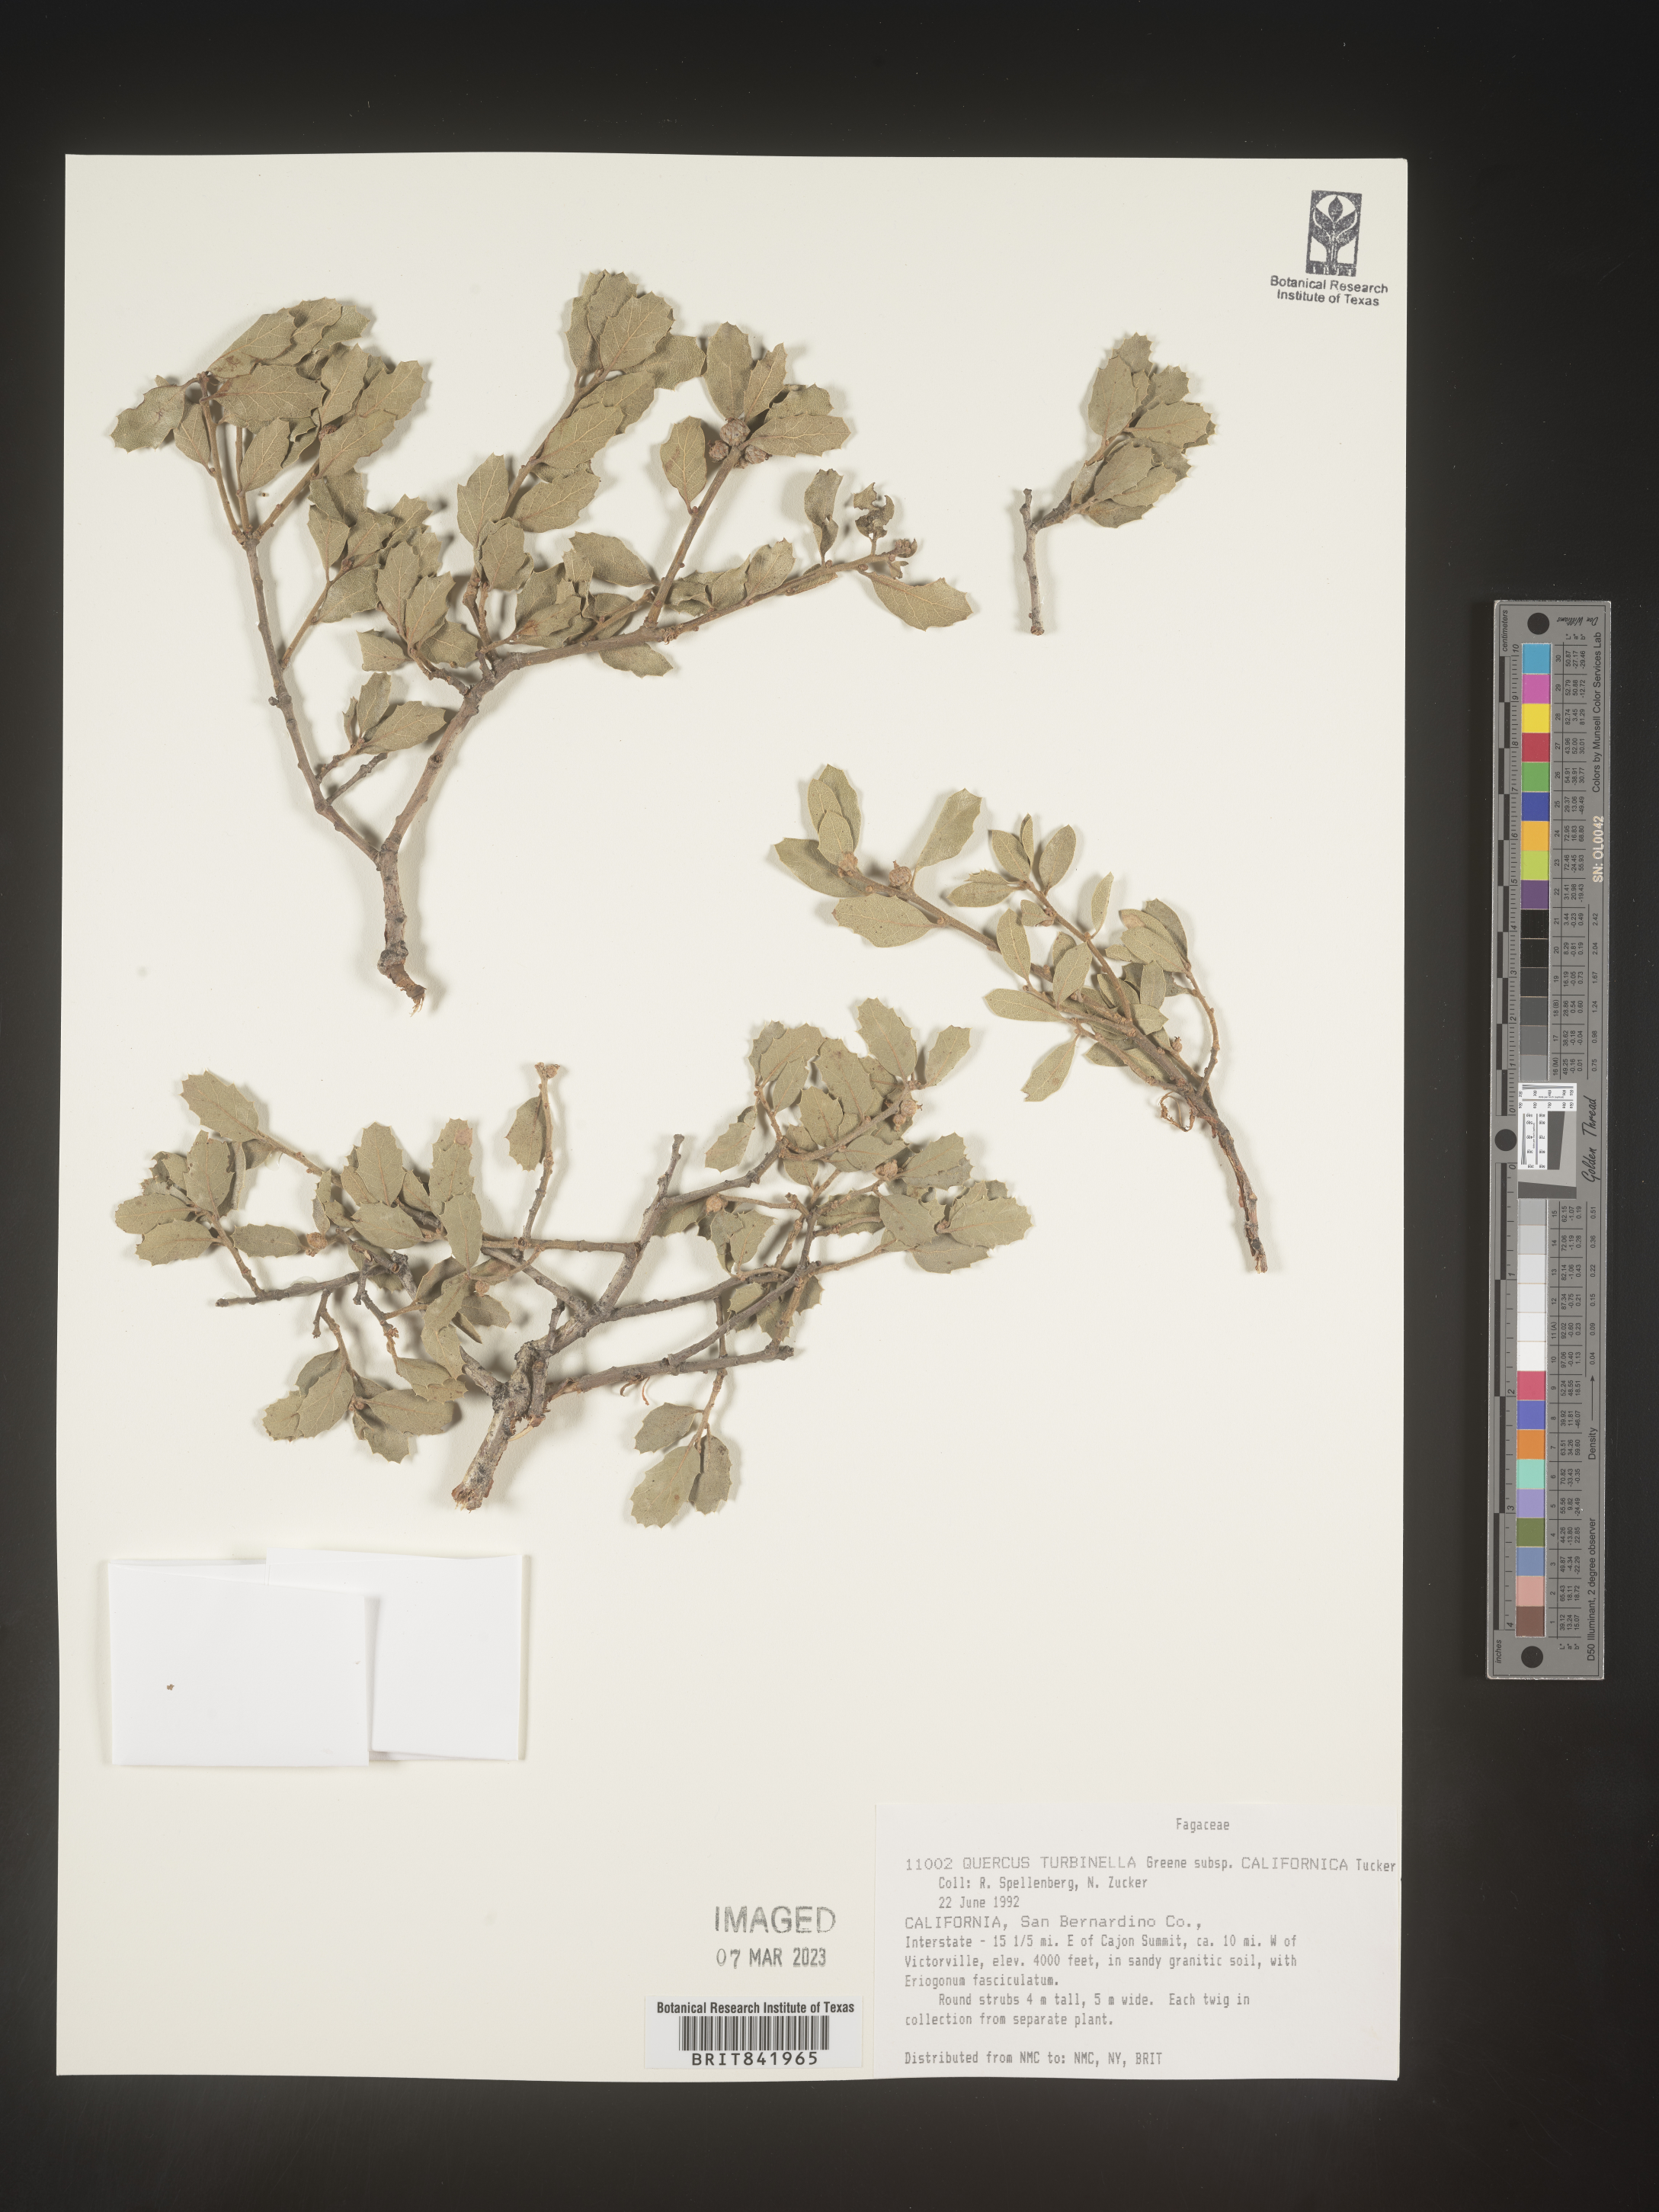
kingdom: Plantae
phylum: Tracheophyta
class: Magnoliopsida
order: Fagales
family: Fagaceae
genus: Quercus
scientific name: Quercus turbinella
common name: Sonoran scrub oak
